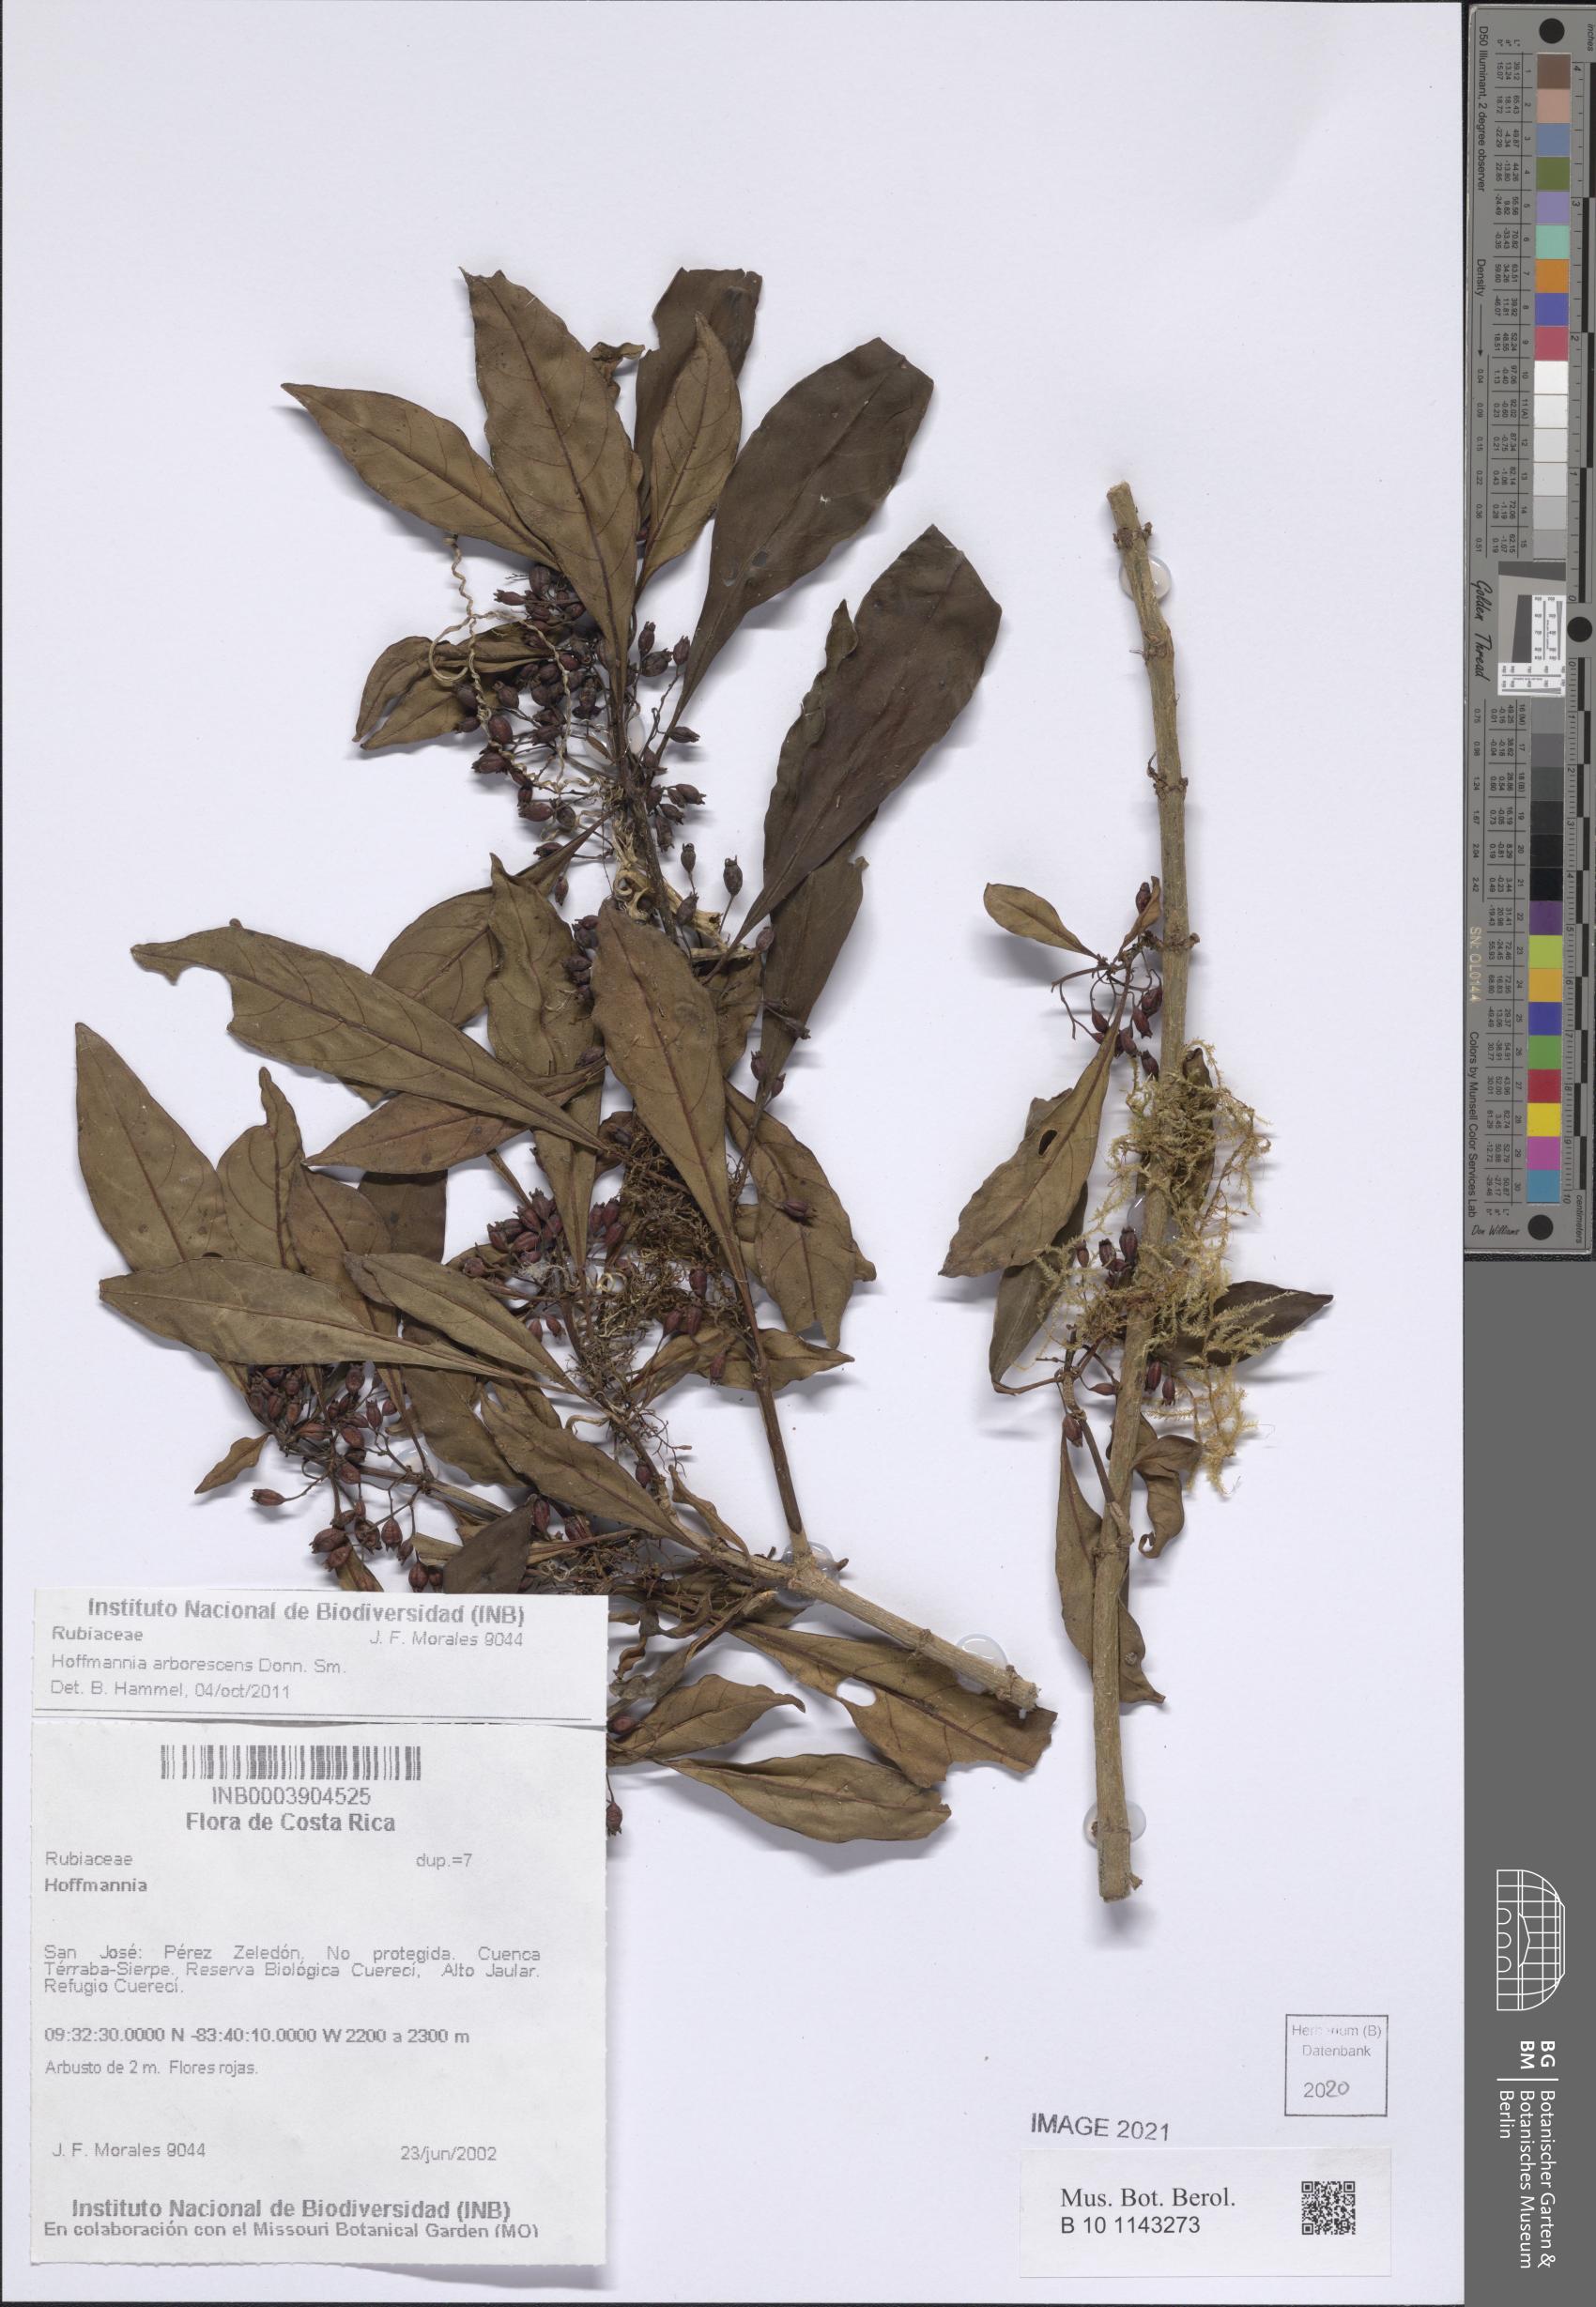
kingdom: Plantae
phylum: Tracheophyta
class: Magnoliopsida
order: Gentianales
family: Rubiaceae
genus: Hoffmannia
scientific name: Hoffmannia arborescens
